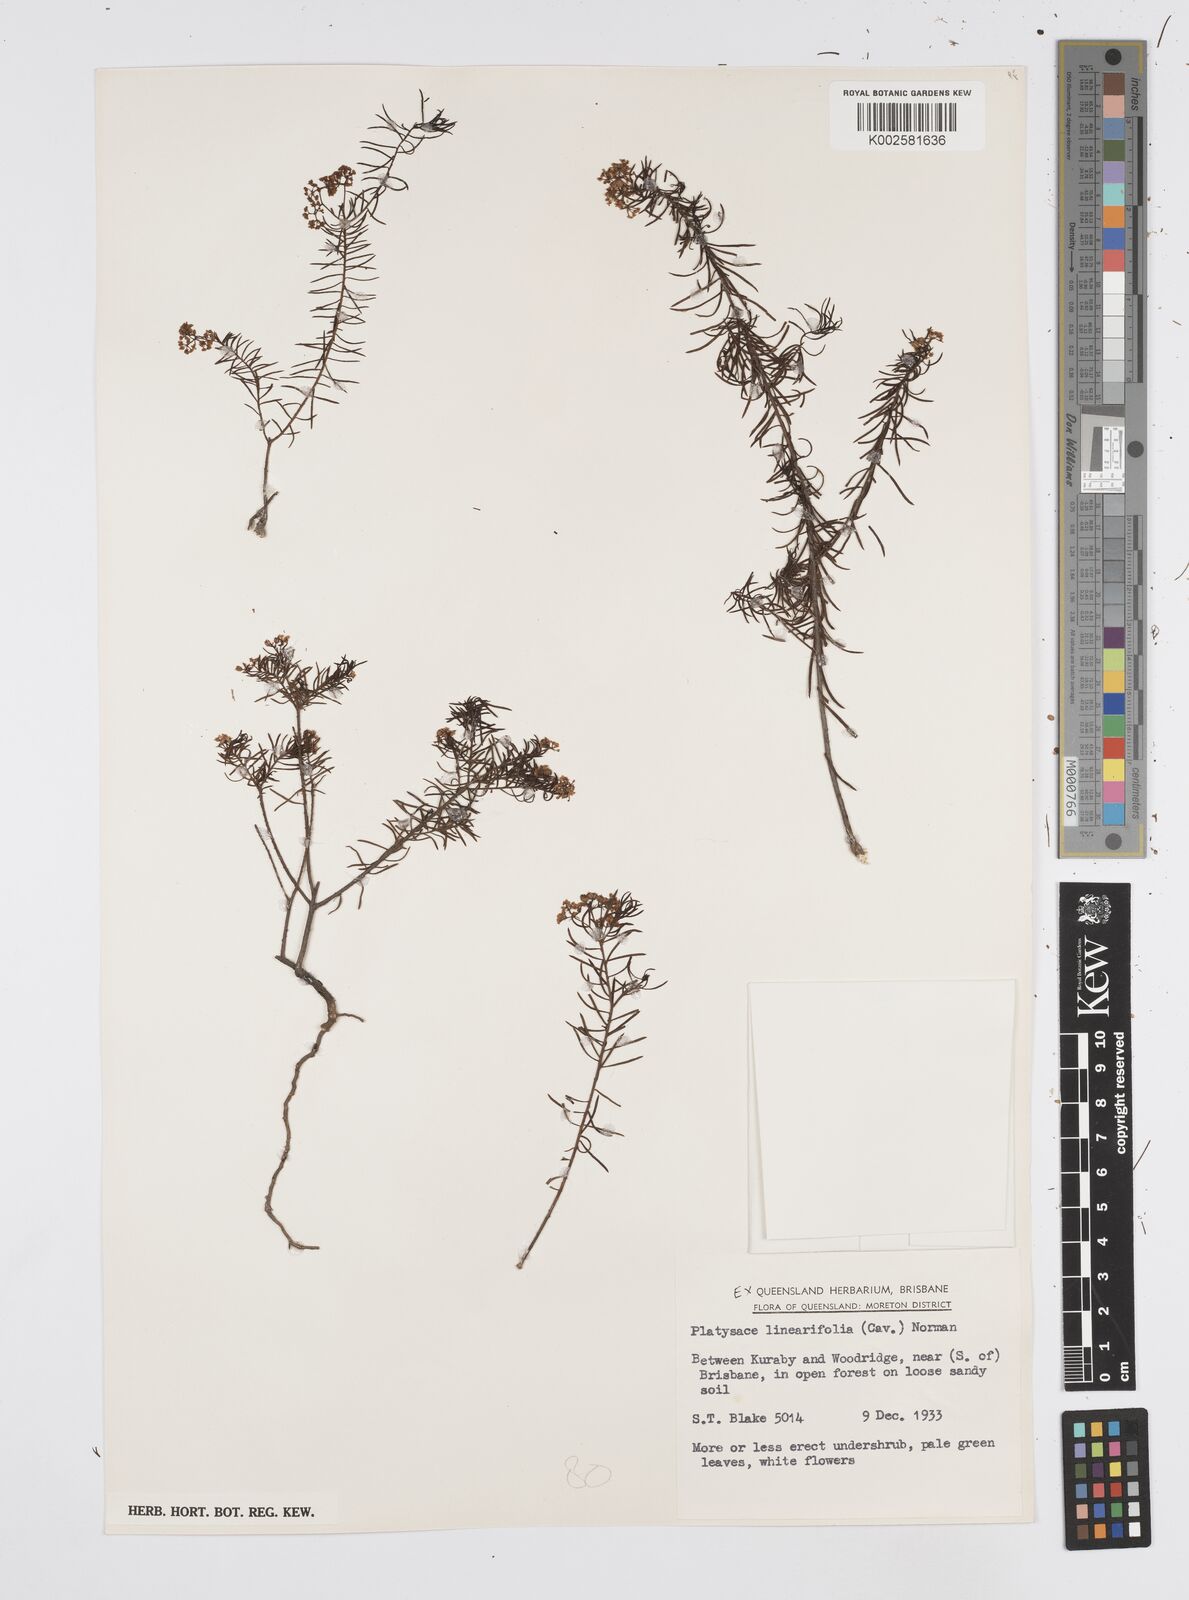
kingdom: Plantae
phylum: Tracheophyta
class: Magnoliopsida
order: Apiales
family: Apiaceae
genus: Platysace
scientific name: Platysace linearifolia
